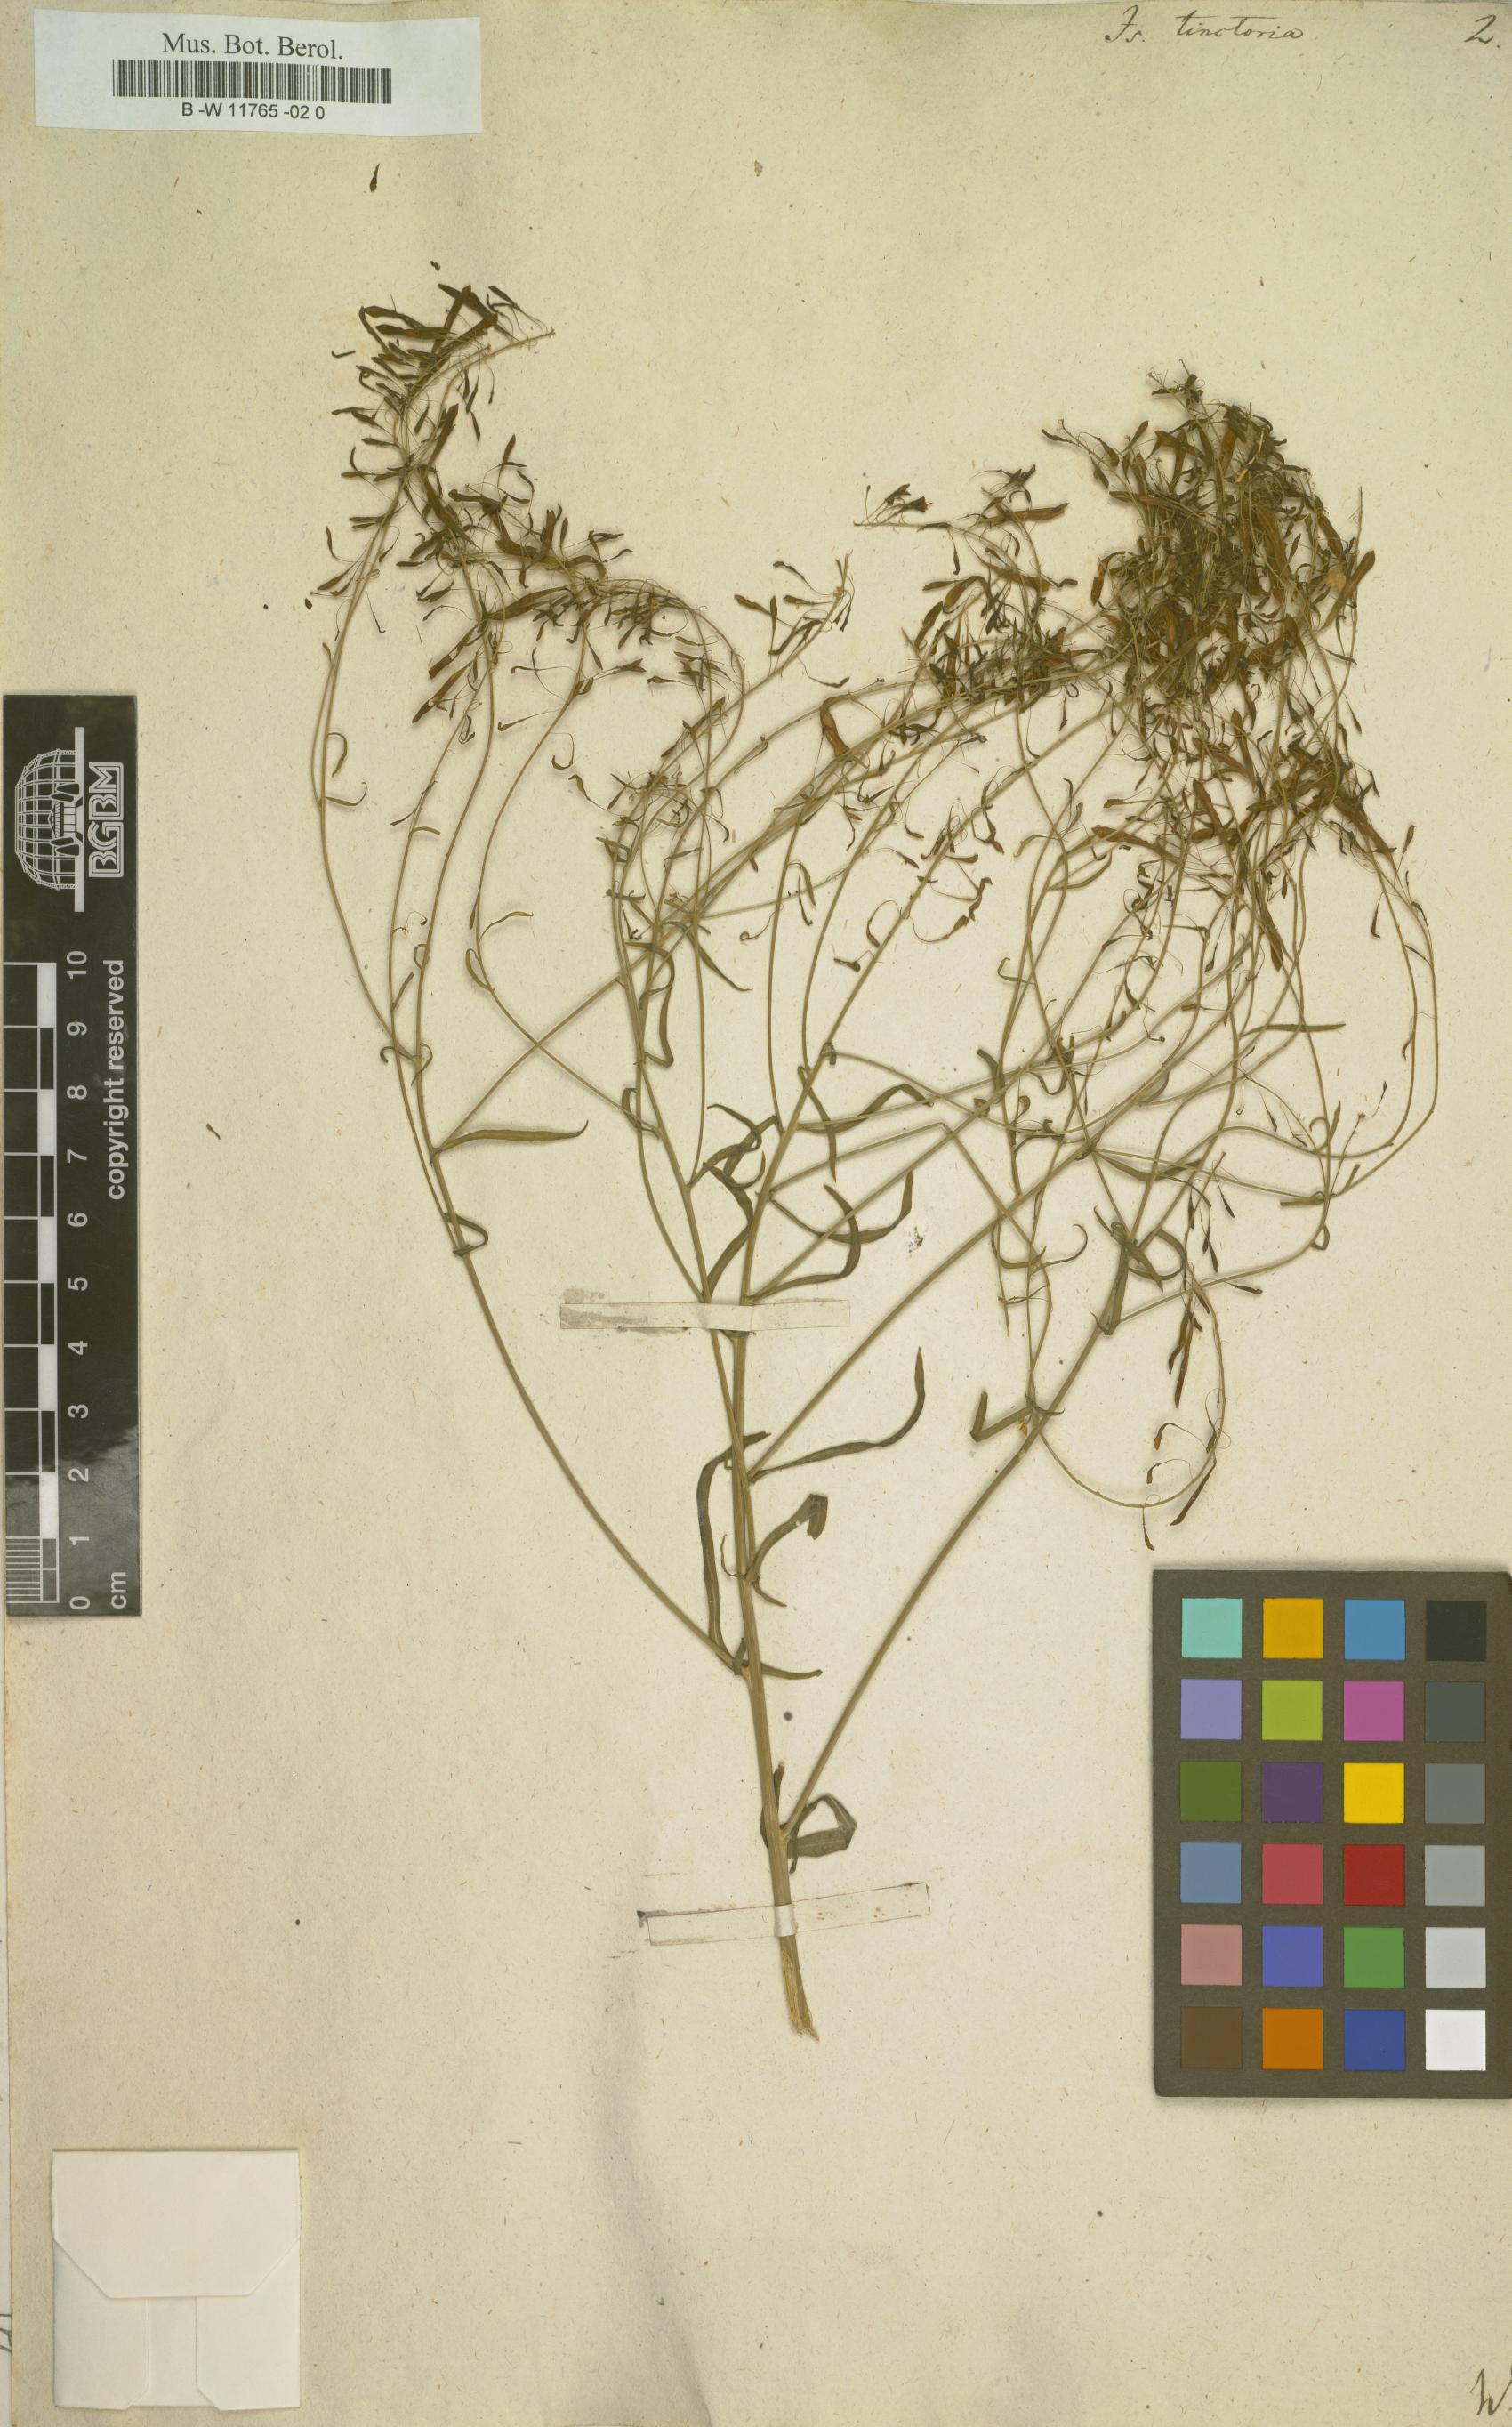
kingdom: Plantae
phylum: Tracheophyta
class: Magnoliopsida
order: Brassicales
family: Brassicaceae
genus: Isatis
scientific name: Isatis tinctoria
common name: Woad
